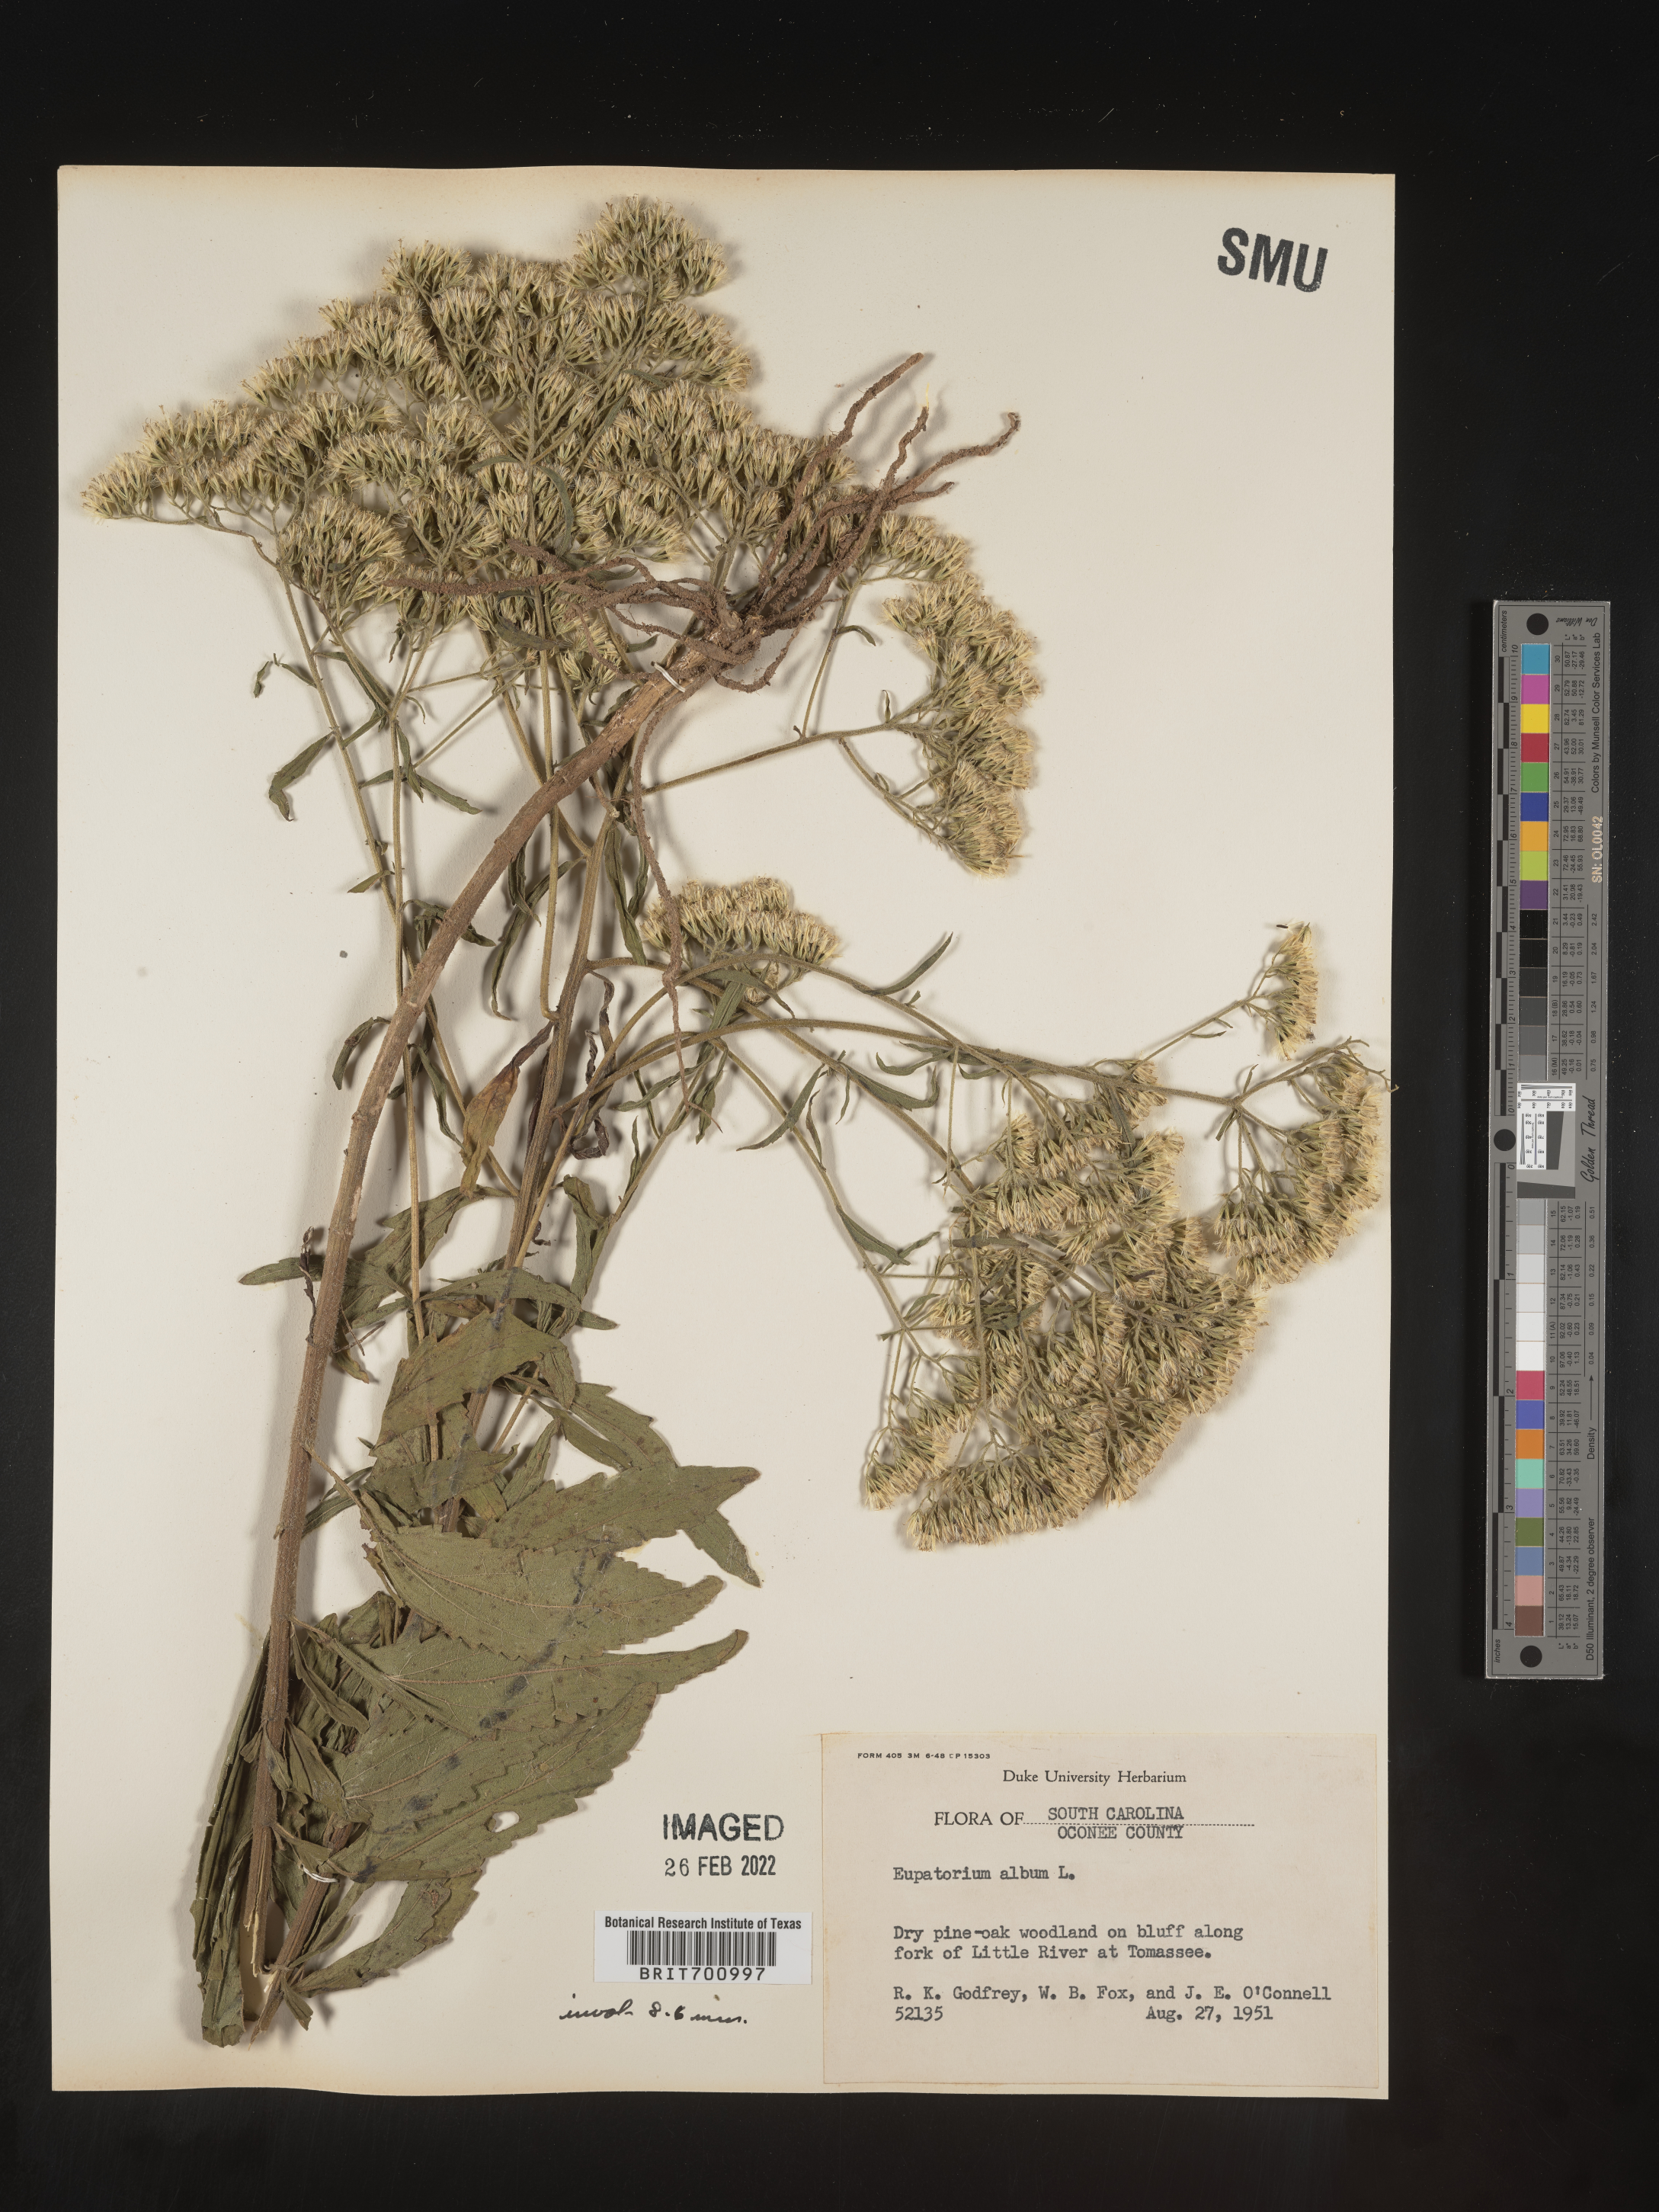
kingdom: Plantae
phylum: Tracheophyta
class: Magnoliopsida
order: Asterales
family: Asteraceae
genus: Eupatorium
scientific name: Eupatorium album
